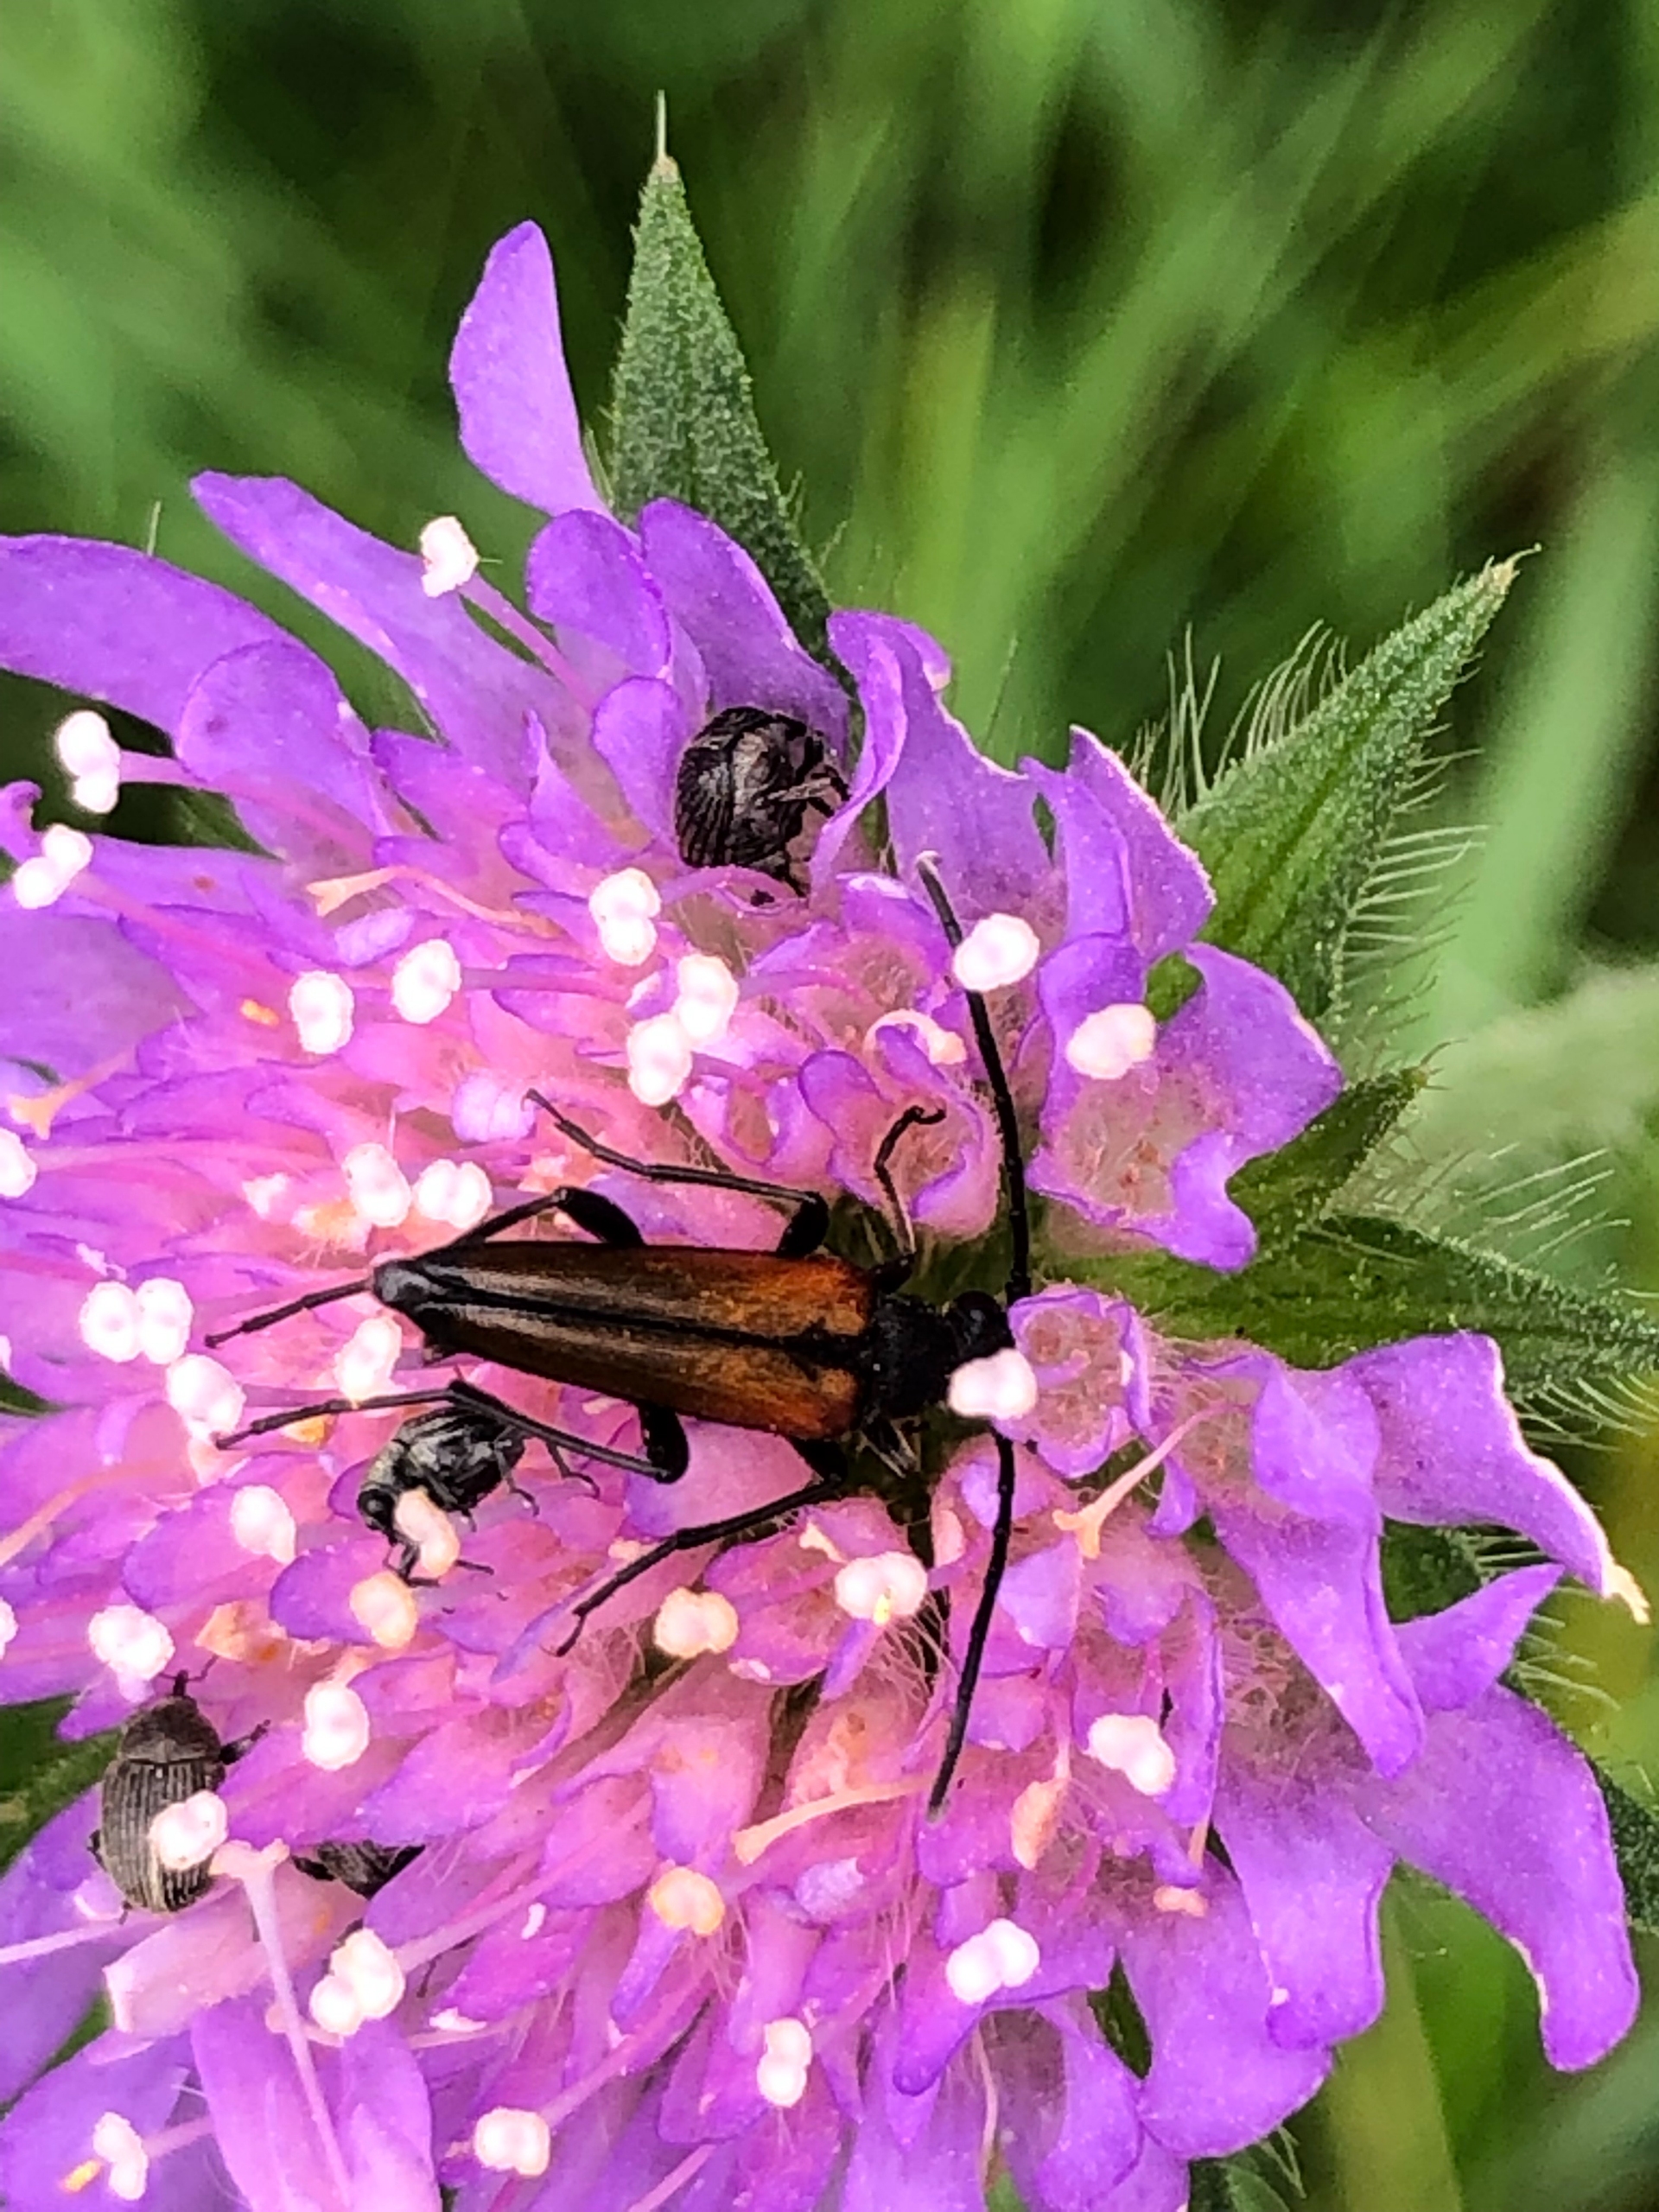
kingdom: Animalia
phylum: Arthropoda
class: Insecta
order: Coleoptera
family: Cerambycidae
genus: Stenurella
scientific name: Stenurella melanura
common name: Sortsømmet blomsterbuk
